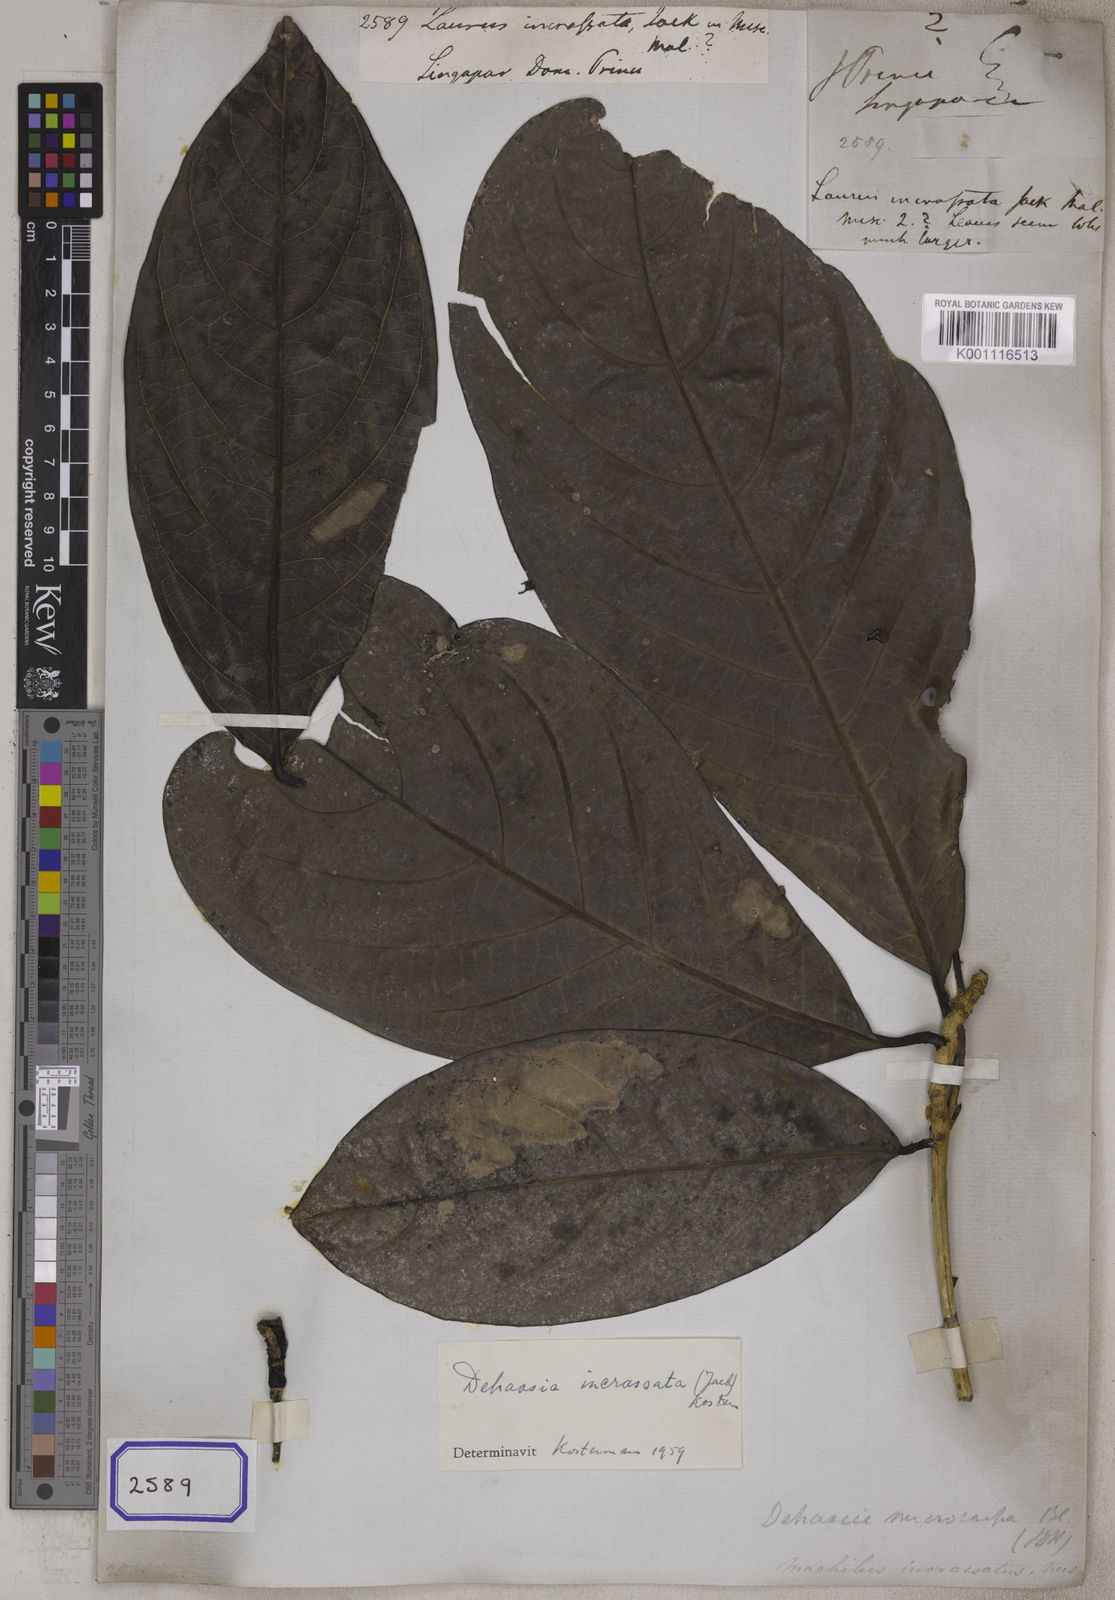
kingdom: Plantae
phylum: Tracheophyta
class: Magnoliopsida
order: Laurales
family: Lauraceae
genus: Dehaasia
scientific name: Dehaasia incrassata
